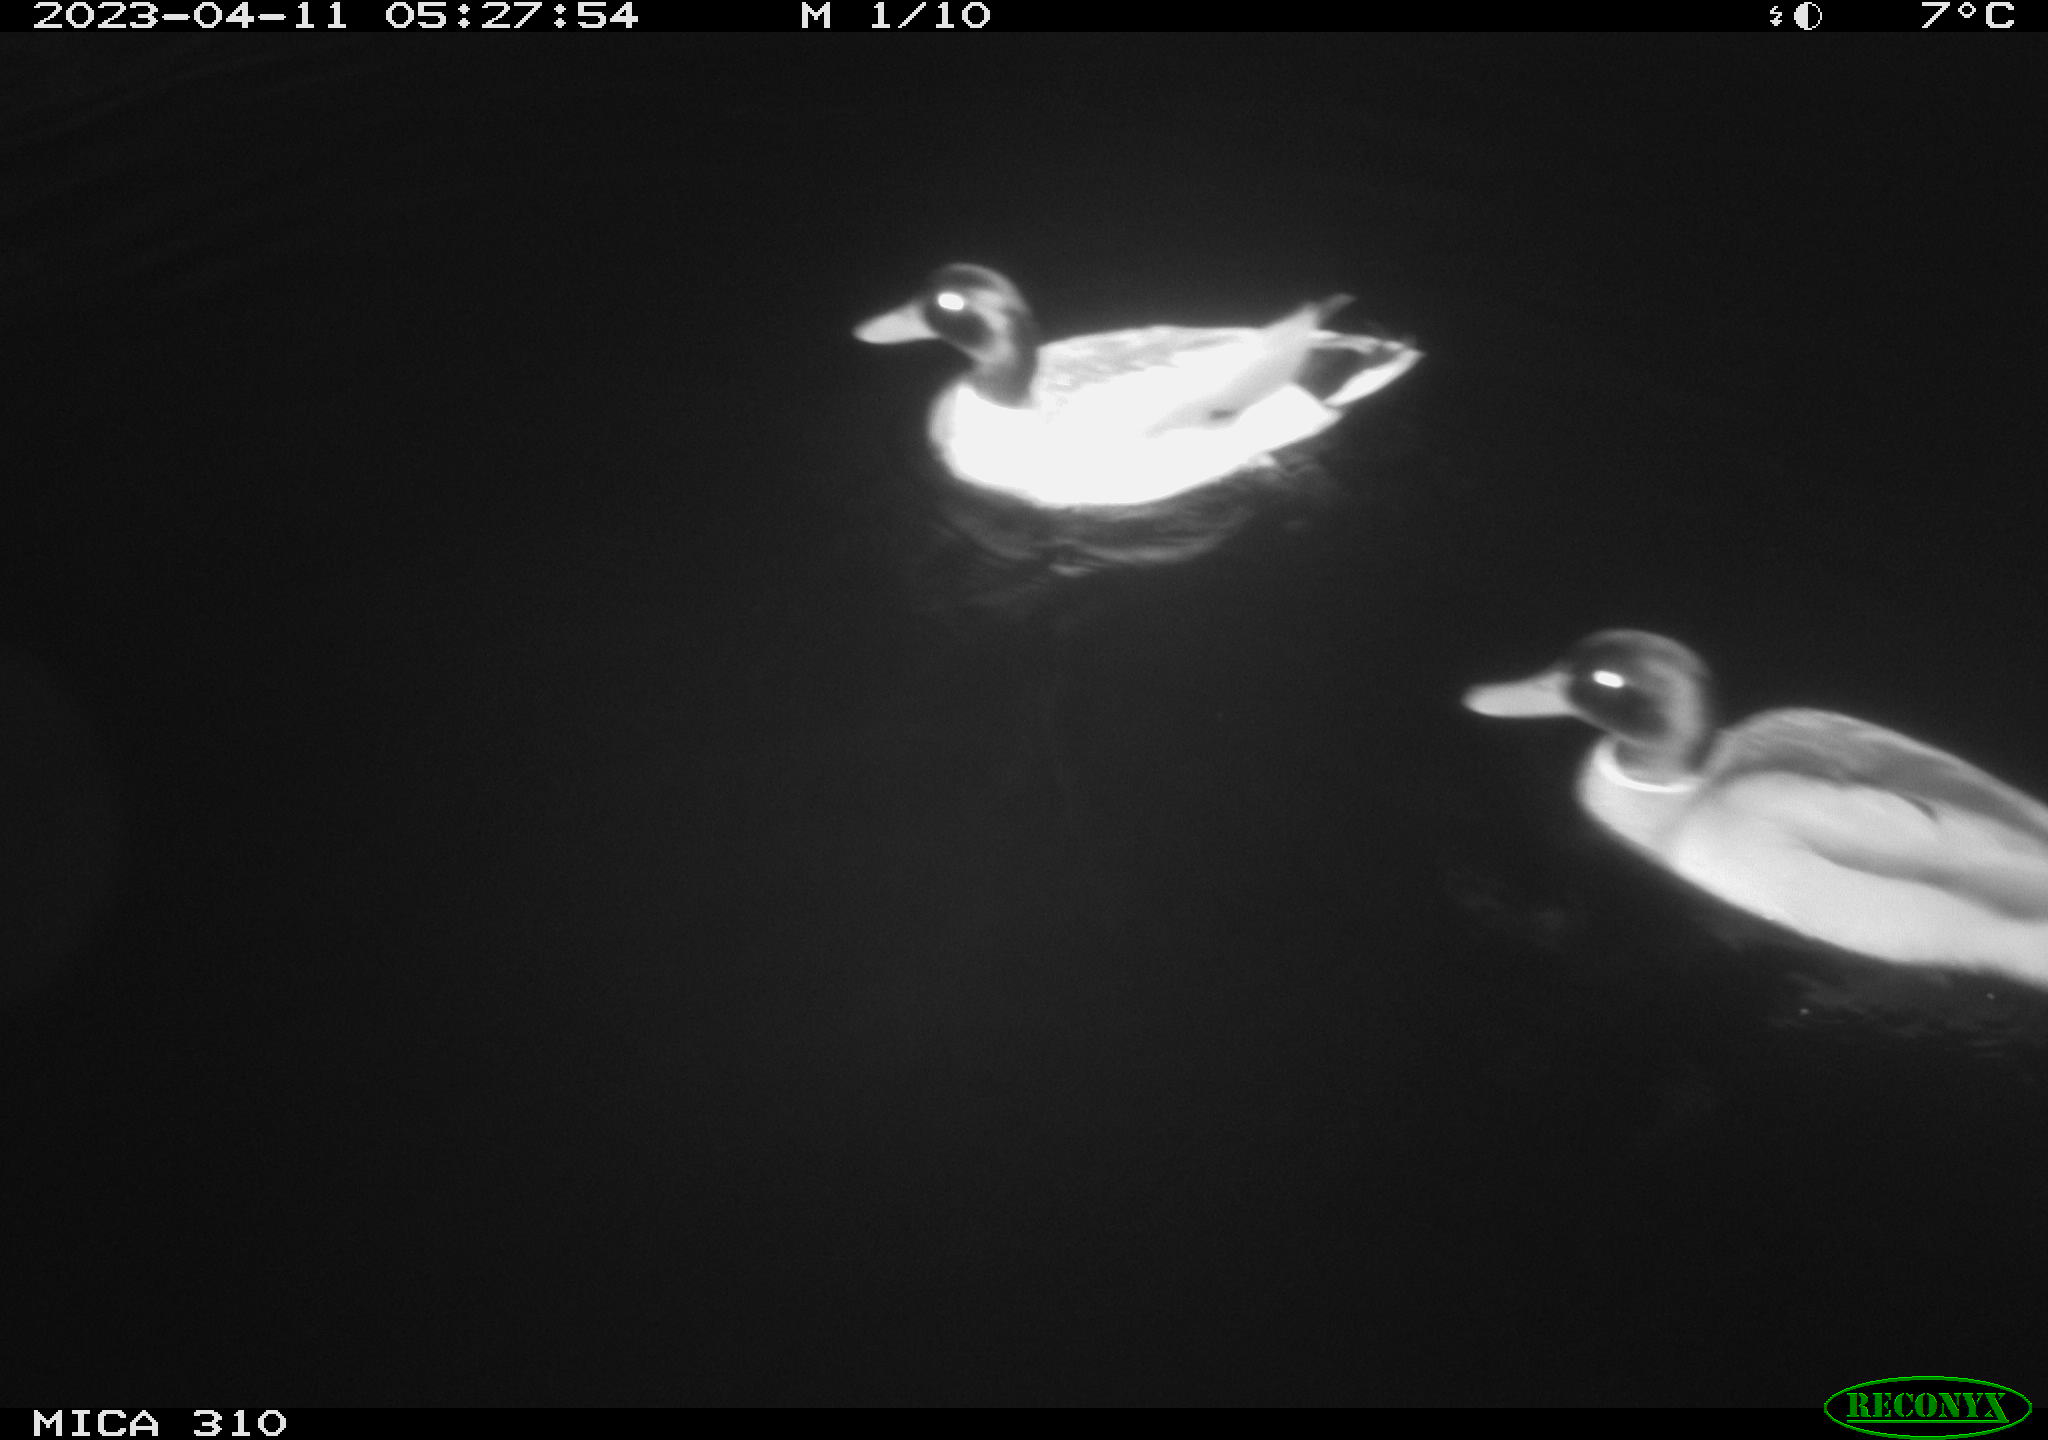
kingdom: Animalia
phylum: Chordata
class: Aves
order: Anseriformes
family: Anatidae
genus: Anas
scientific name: Anas
